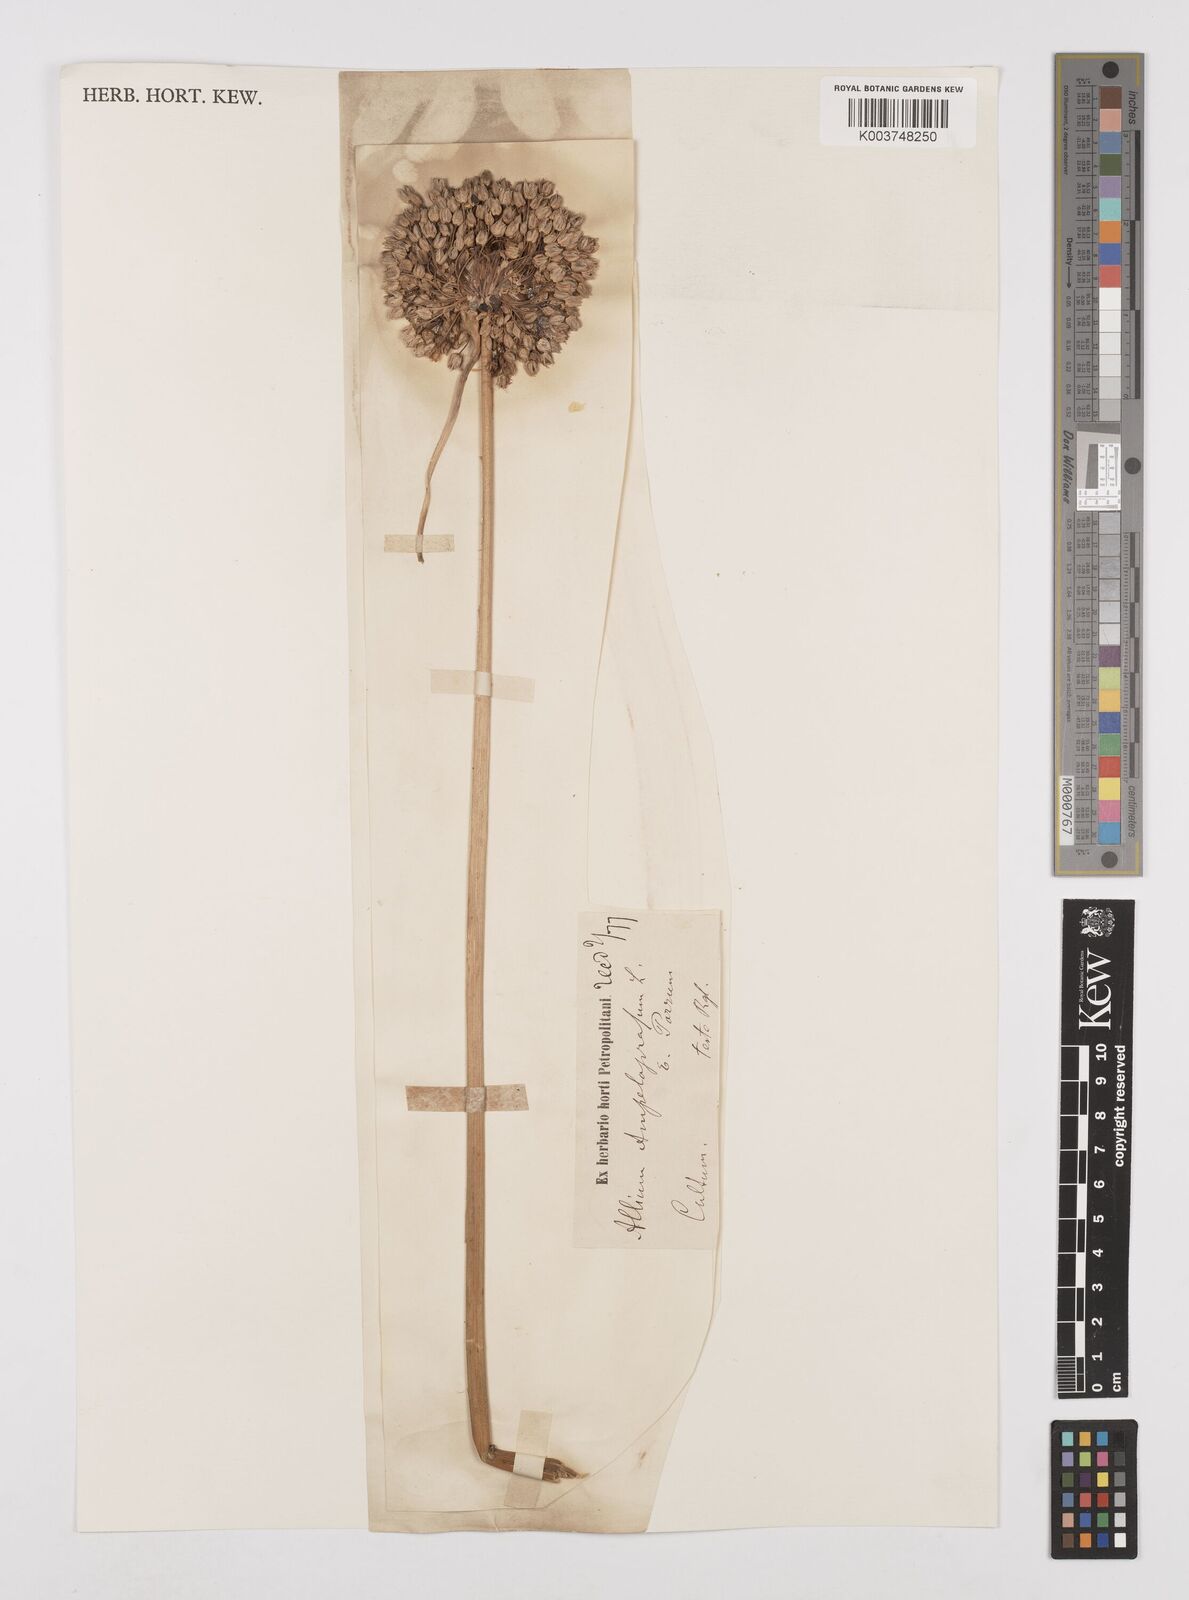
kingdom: Plantae
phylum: Tracheophyta
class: Liliopsida
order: Asparagales
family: Amaryllidaceae
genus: Allium
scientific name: Allium ampeloprasum
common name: Wild leek
